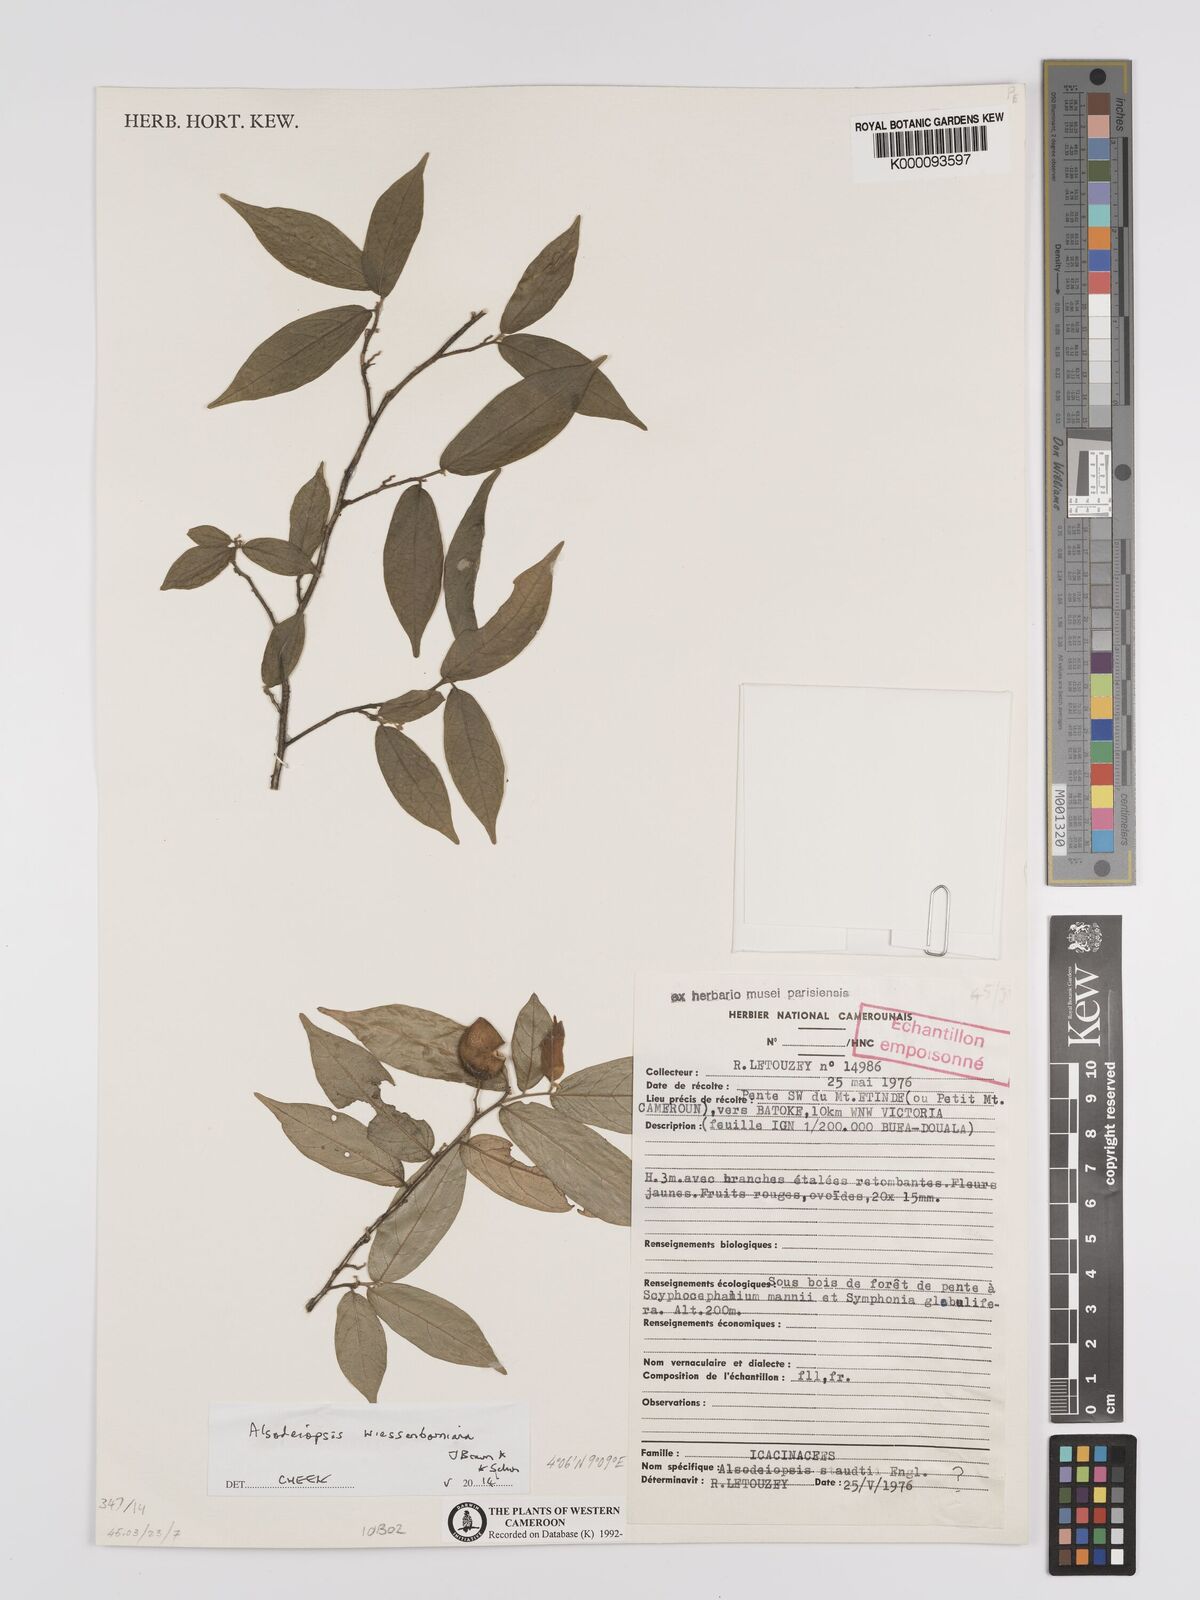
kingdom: Plantae
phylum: Tracheophyta
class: Magnoliopsida
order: Icacinales
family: Icacinaceae
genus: Alsodeiopsis
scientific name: Alsodeiopsis staudtii
